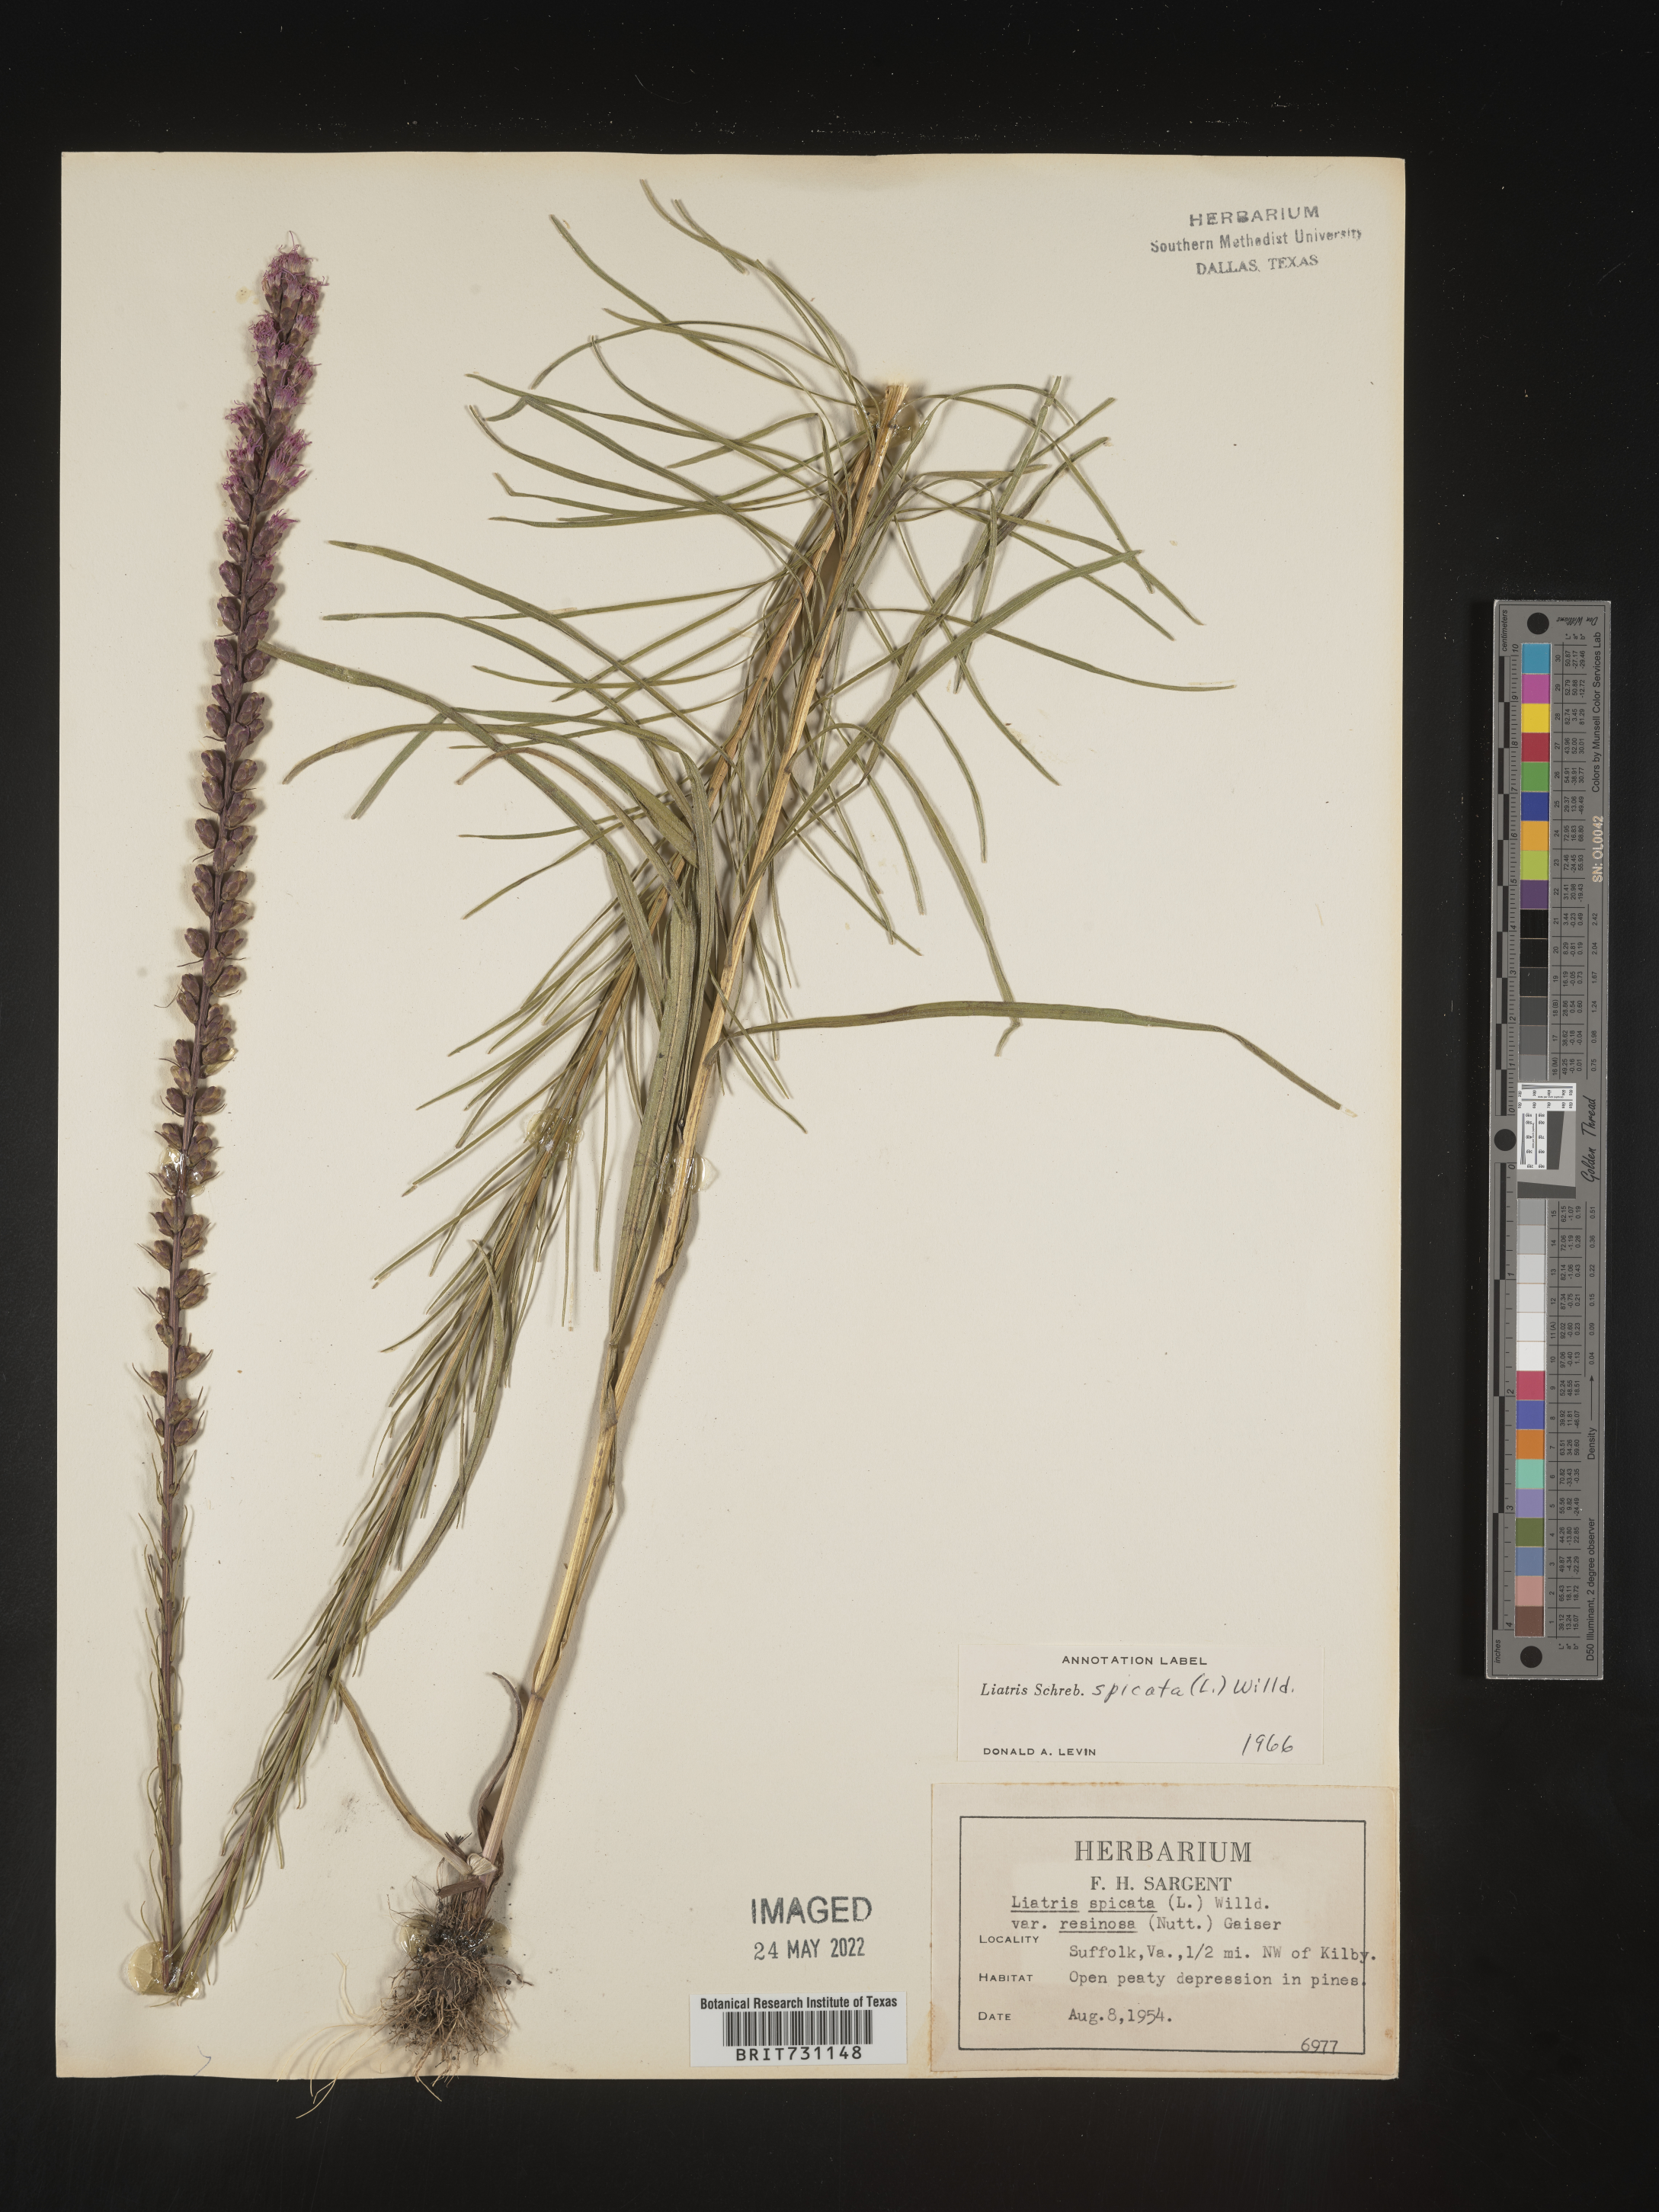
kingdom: Plantae
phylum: Tracheophyta
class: Magnoliopsida
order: Asterales
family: Asteraceae
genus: Liatris
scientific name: Liatris spicata
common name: Florist gayfeather
